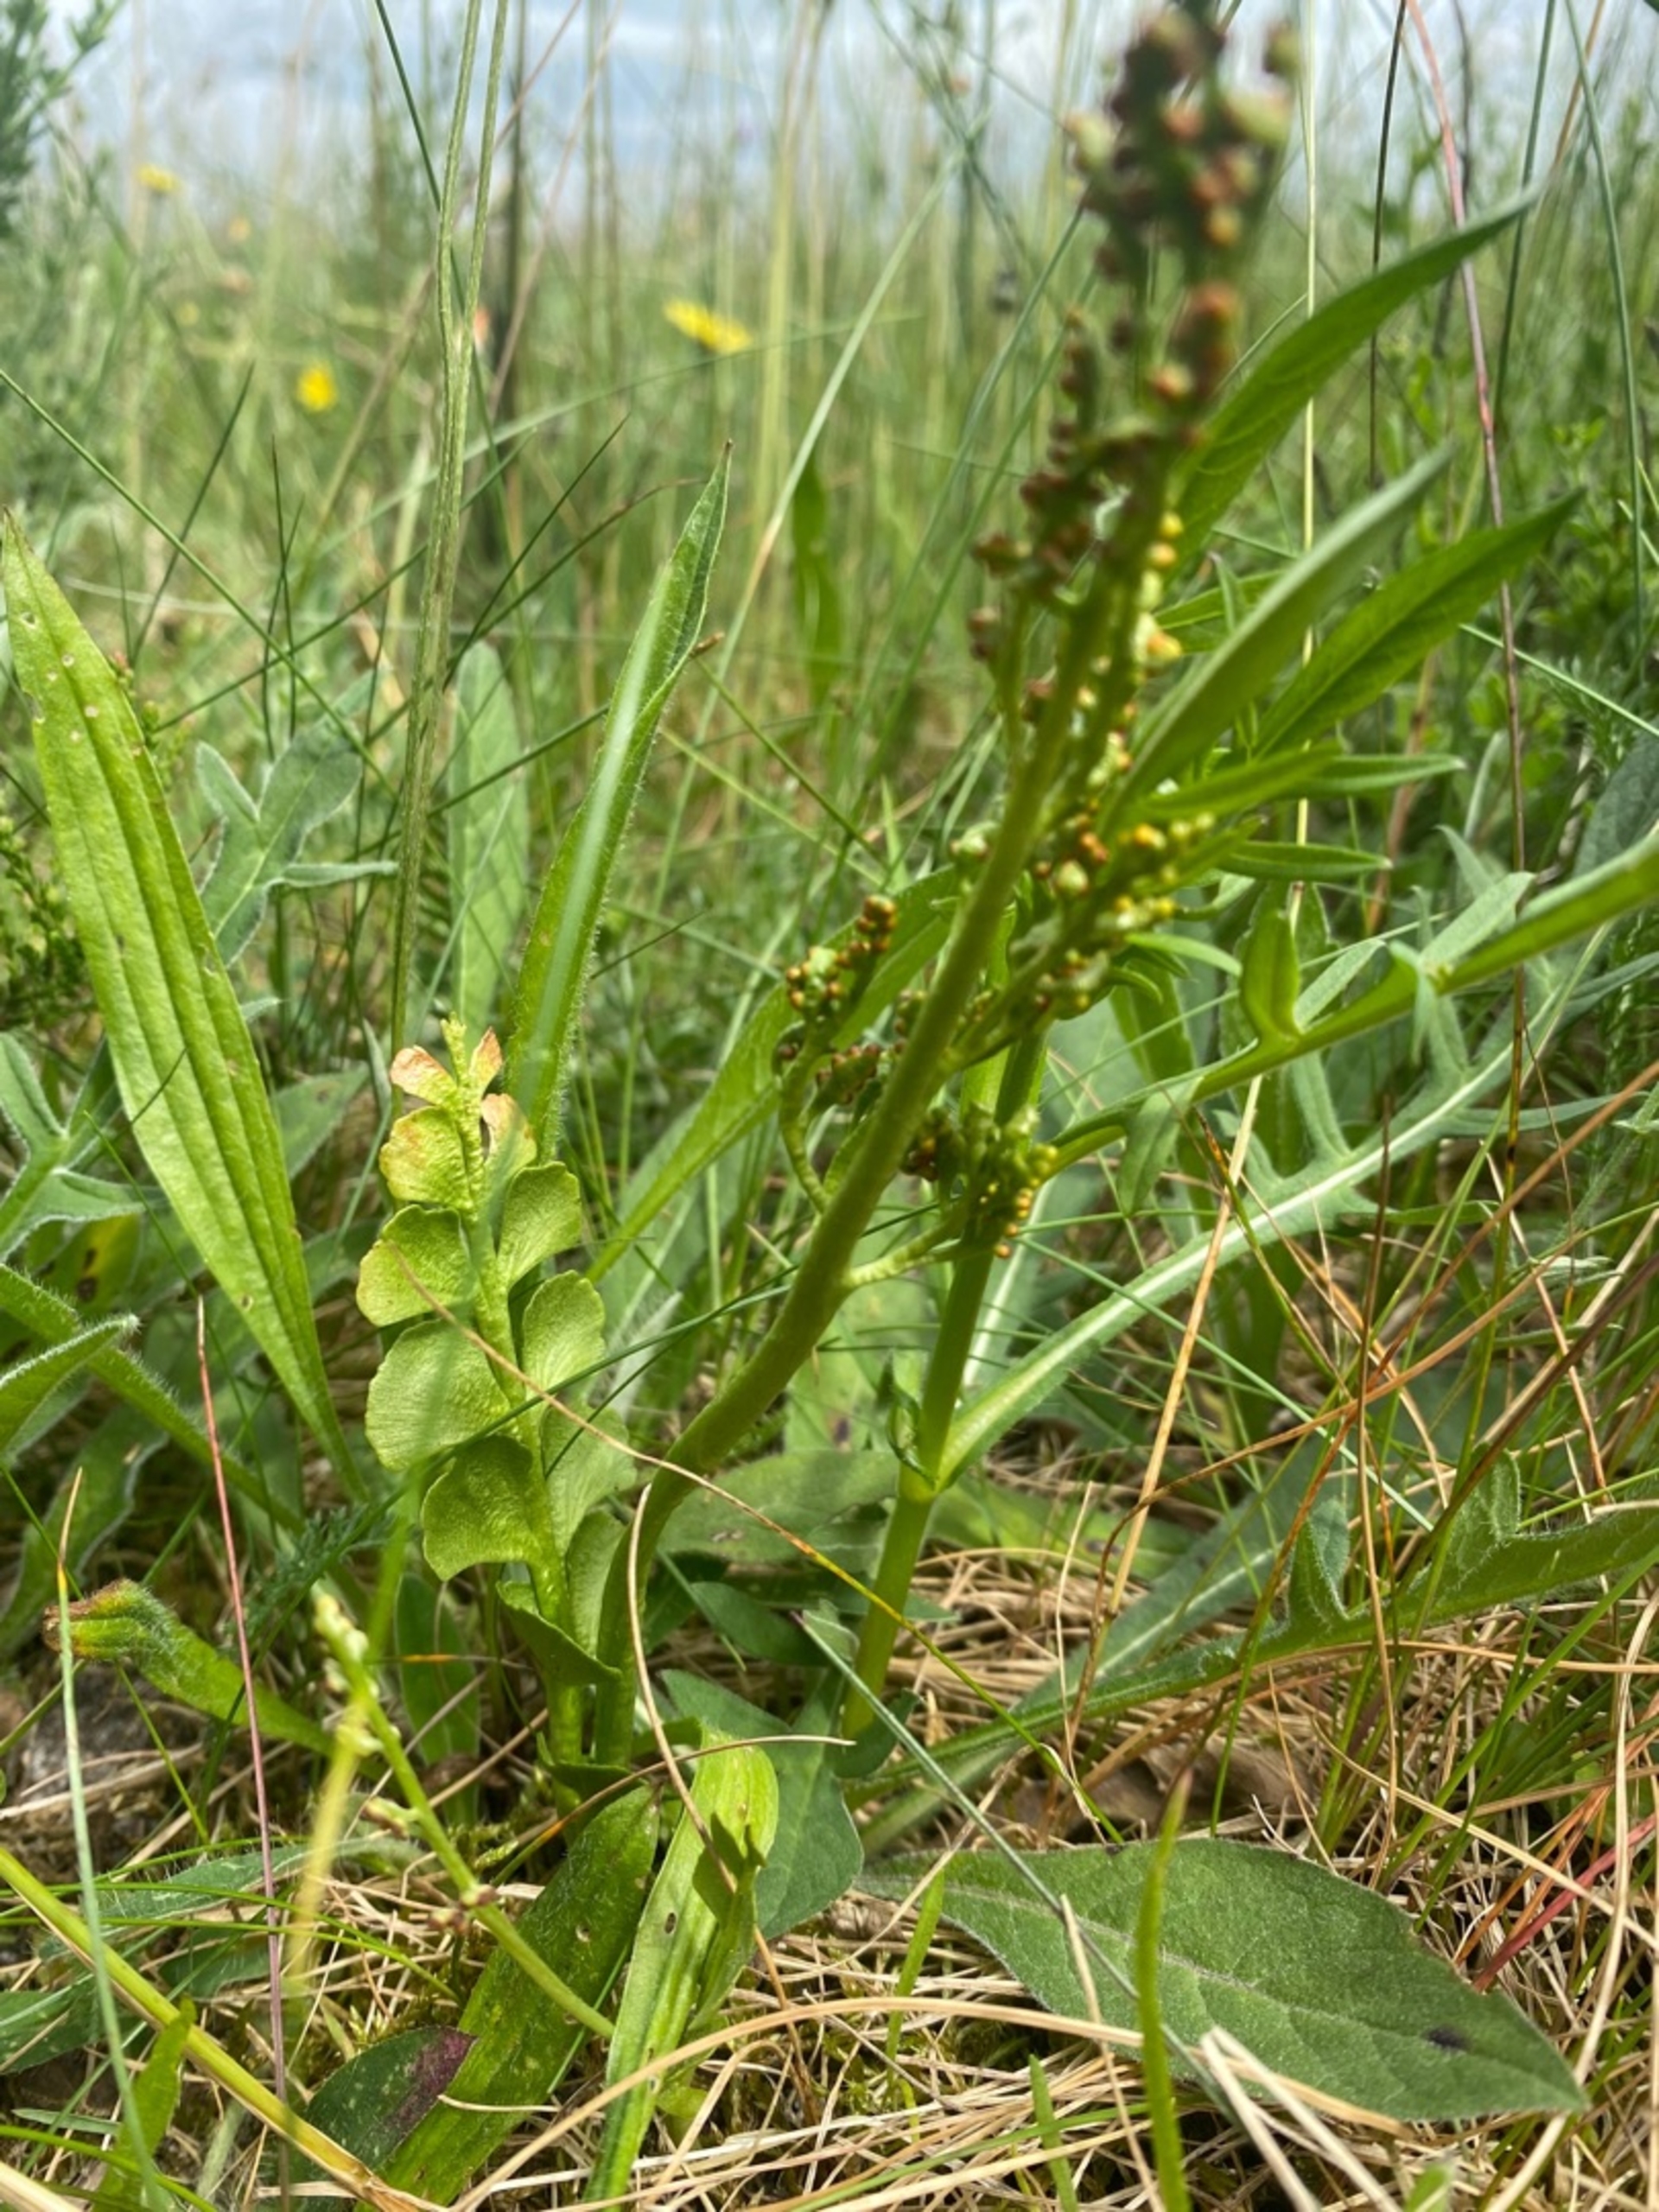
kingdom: Plantae
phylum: Tracheophyta
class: Polypodiopsida
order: Ophioglossales
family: Ophioglossaceae
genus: Botrychium
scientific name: Botrychium lunaria
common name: Almindelig månerude
